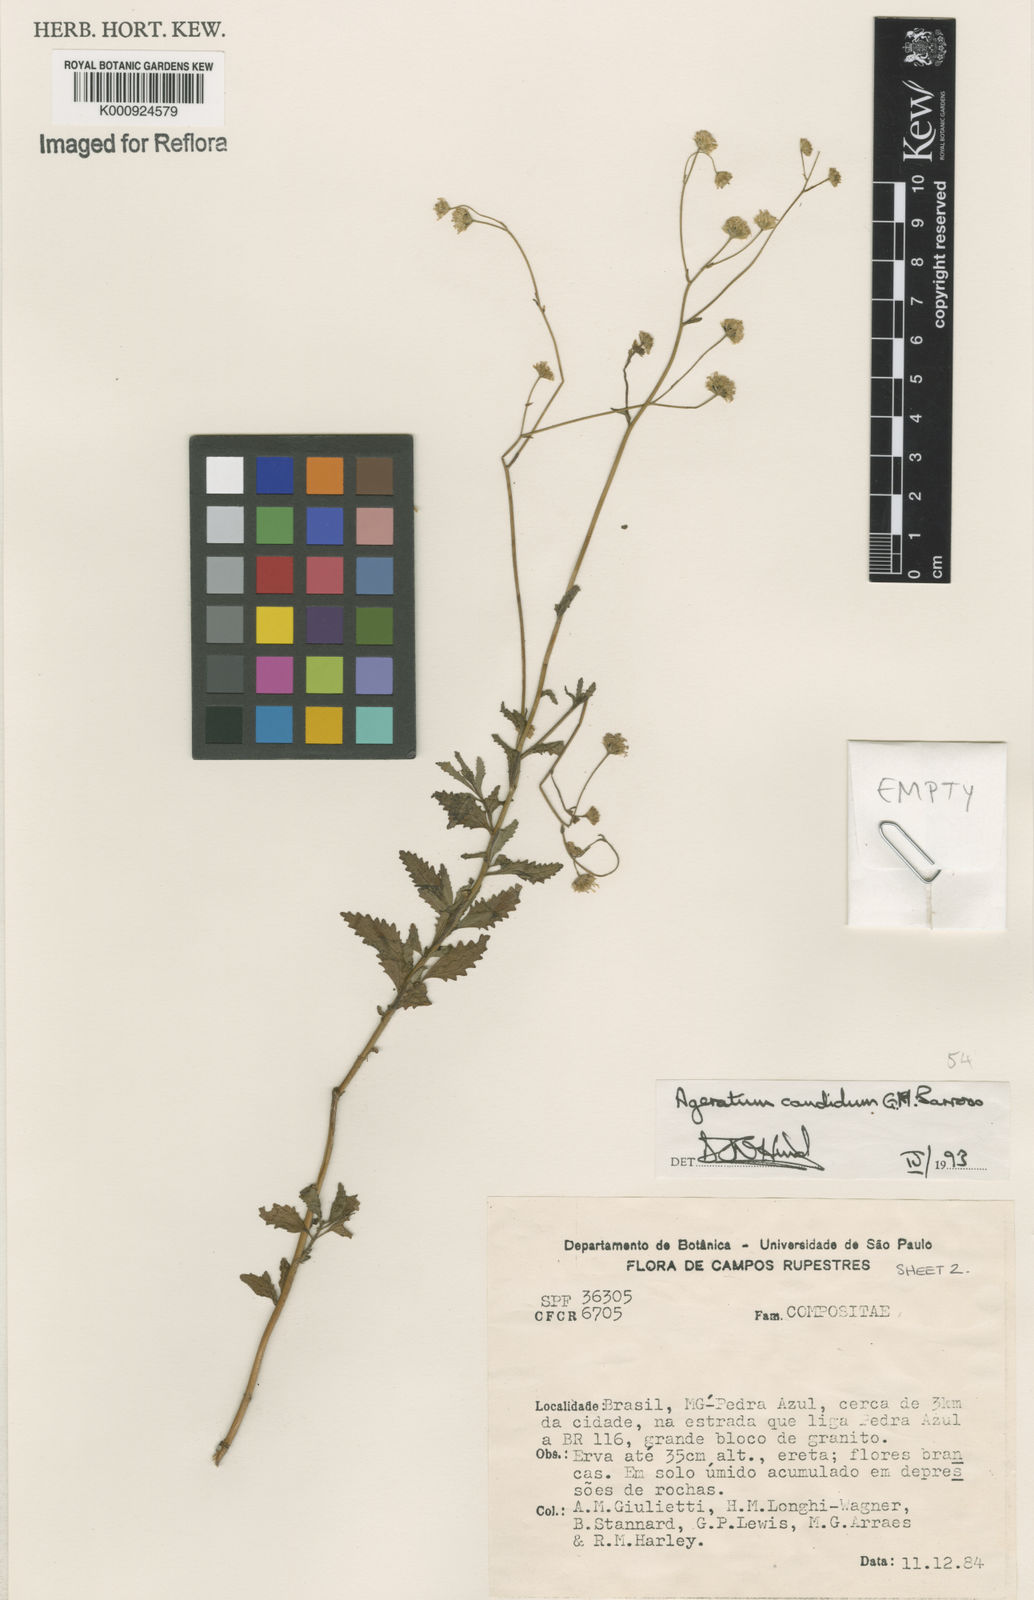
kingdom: Plantae
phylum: Tracheophyta
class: Magnoliopsida
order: Asterales
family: Asteraceae
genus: Ageratum
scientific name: Ageratum candidum
